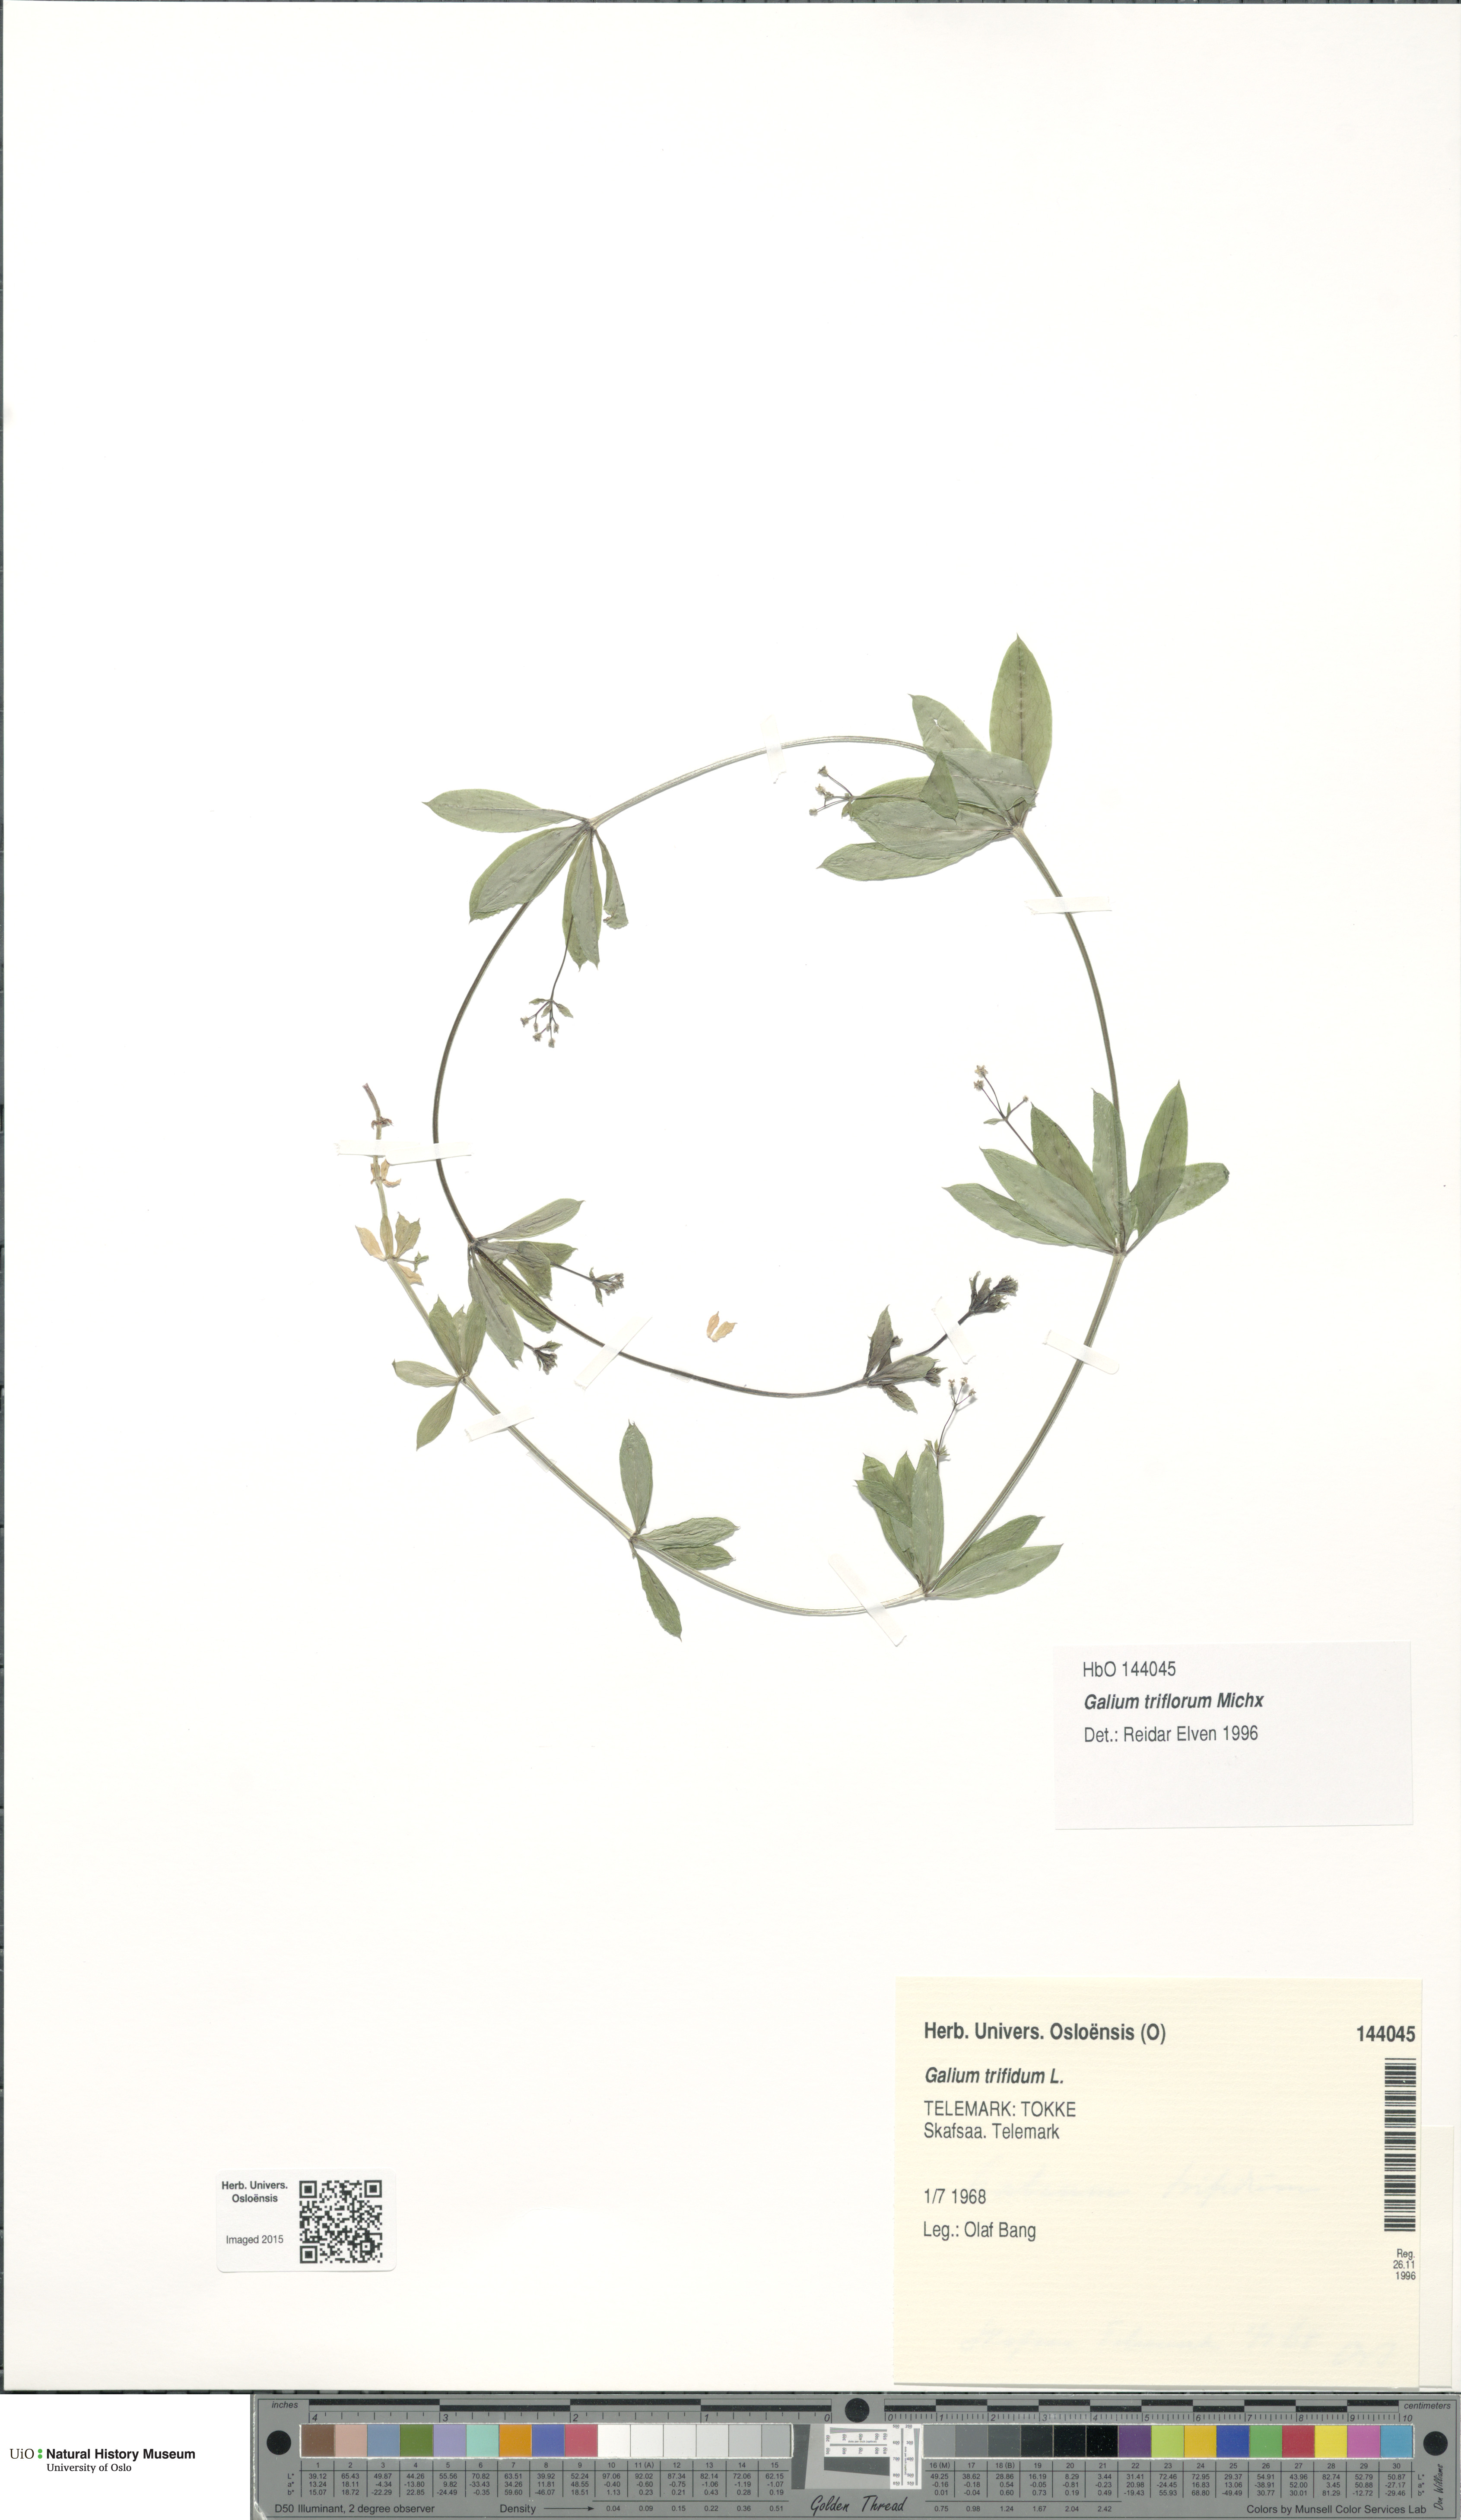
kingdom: Plantae
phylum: Tracheophyta
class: Magnoliopsida
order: Gentianales
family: Rubiaceae
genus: Galium
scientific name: Galium triflorum
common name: Fragrant bedstraw
